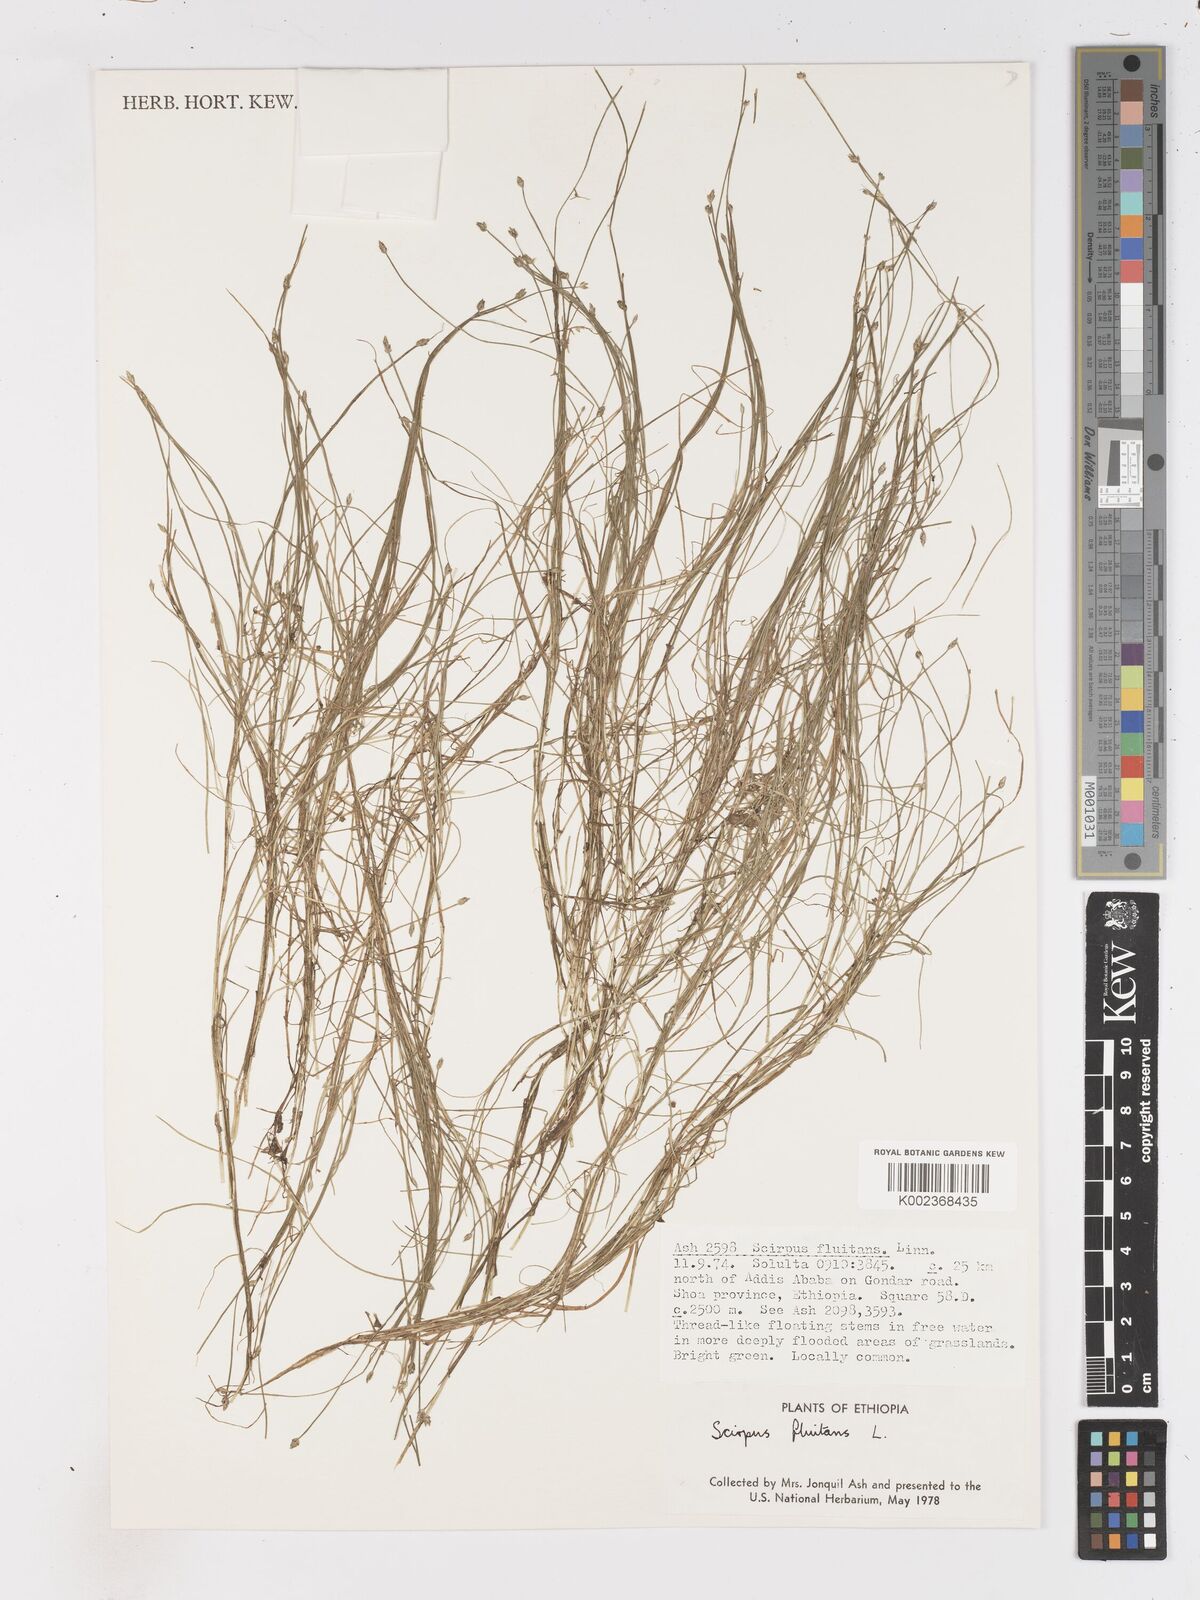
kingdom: Plantae
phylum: Tracheophyta
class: Liliopsida
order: Poales
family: Cyperaceae
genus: Isolepis
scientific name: Isolepis fluitans
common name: Floating club-rush
